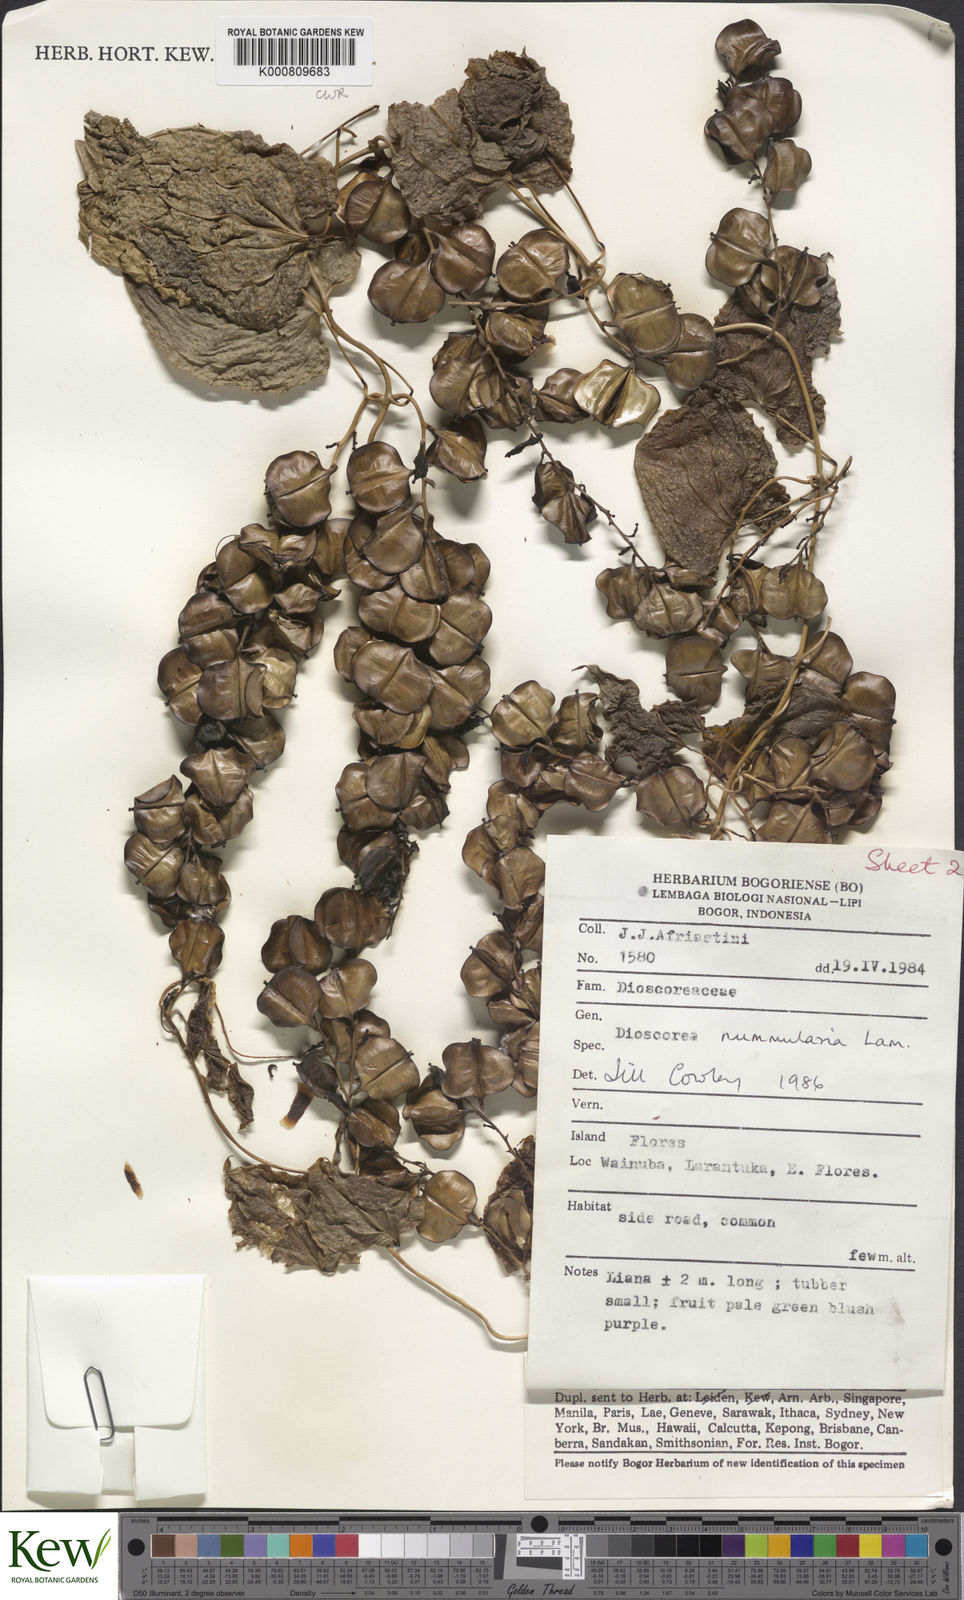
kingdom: Plantae
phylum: Tracheophyta
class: Liliopsida
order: Dioscoreales
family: Dioscoreaceae
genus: Dioscorea
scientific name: Dioscorea nummularia
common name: Pacific yam
